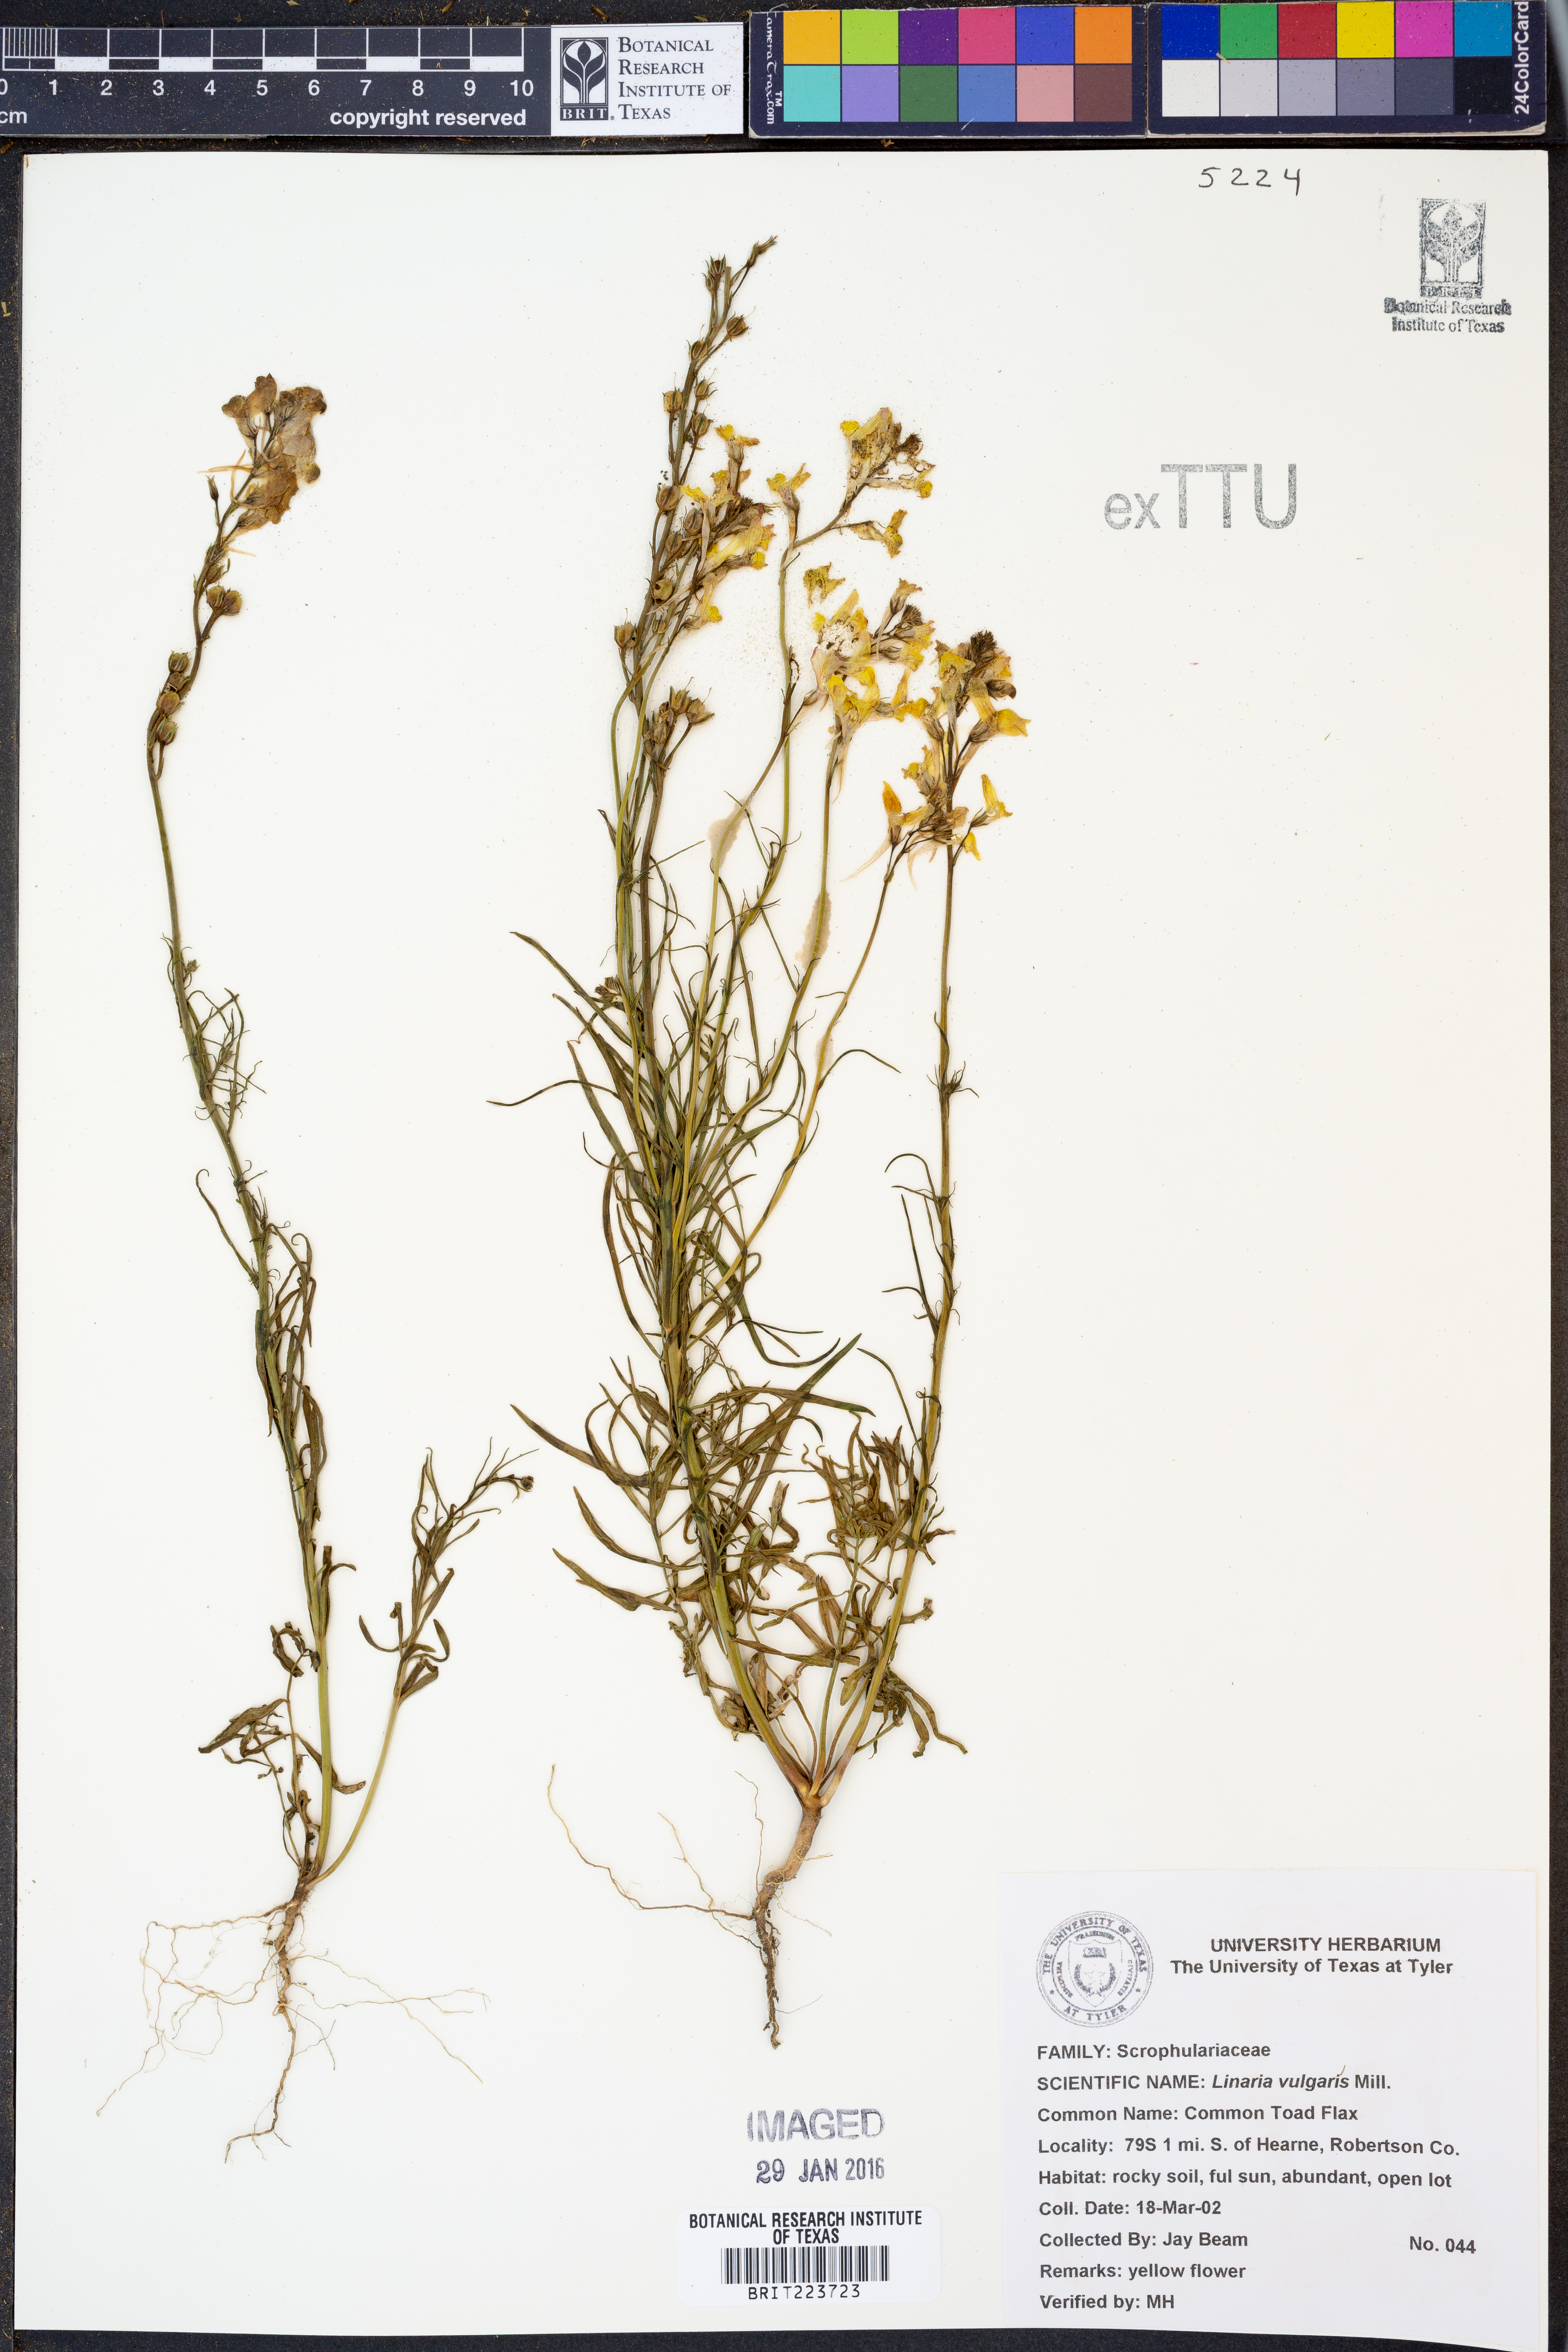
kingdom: Plantae
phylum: Tracheophyta
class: Magnoliopsida
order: Lamiales
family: Plantaginaceae
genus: Linaria
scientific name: Linaria vulgaris
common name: Butter and eggs
